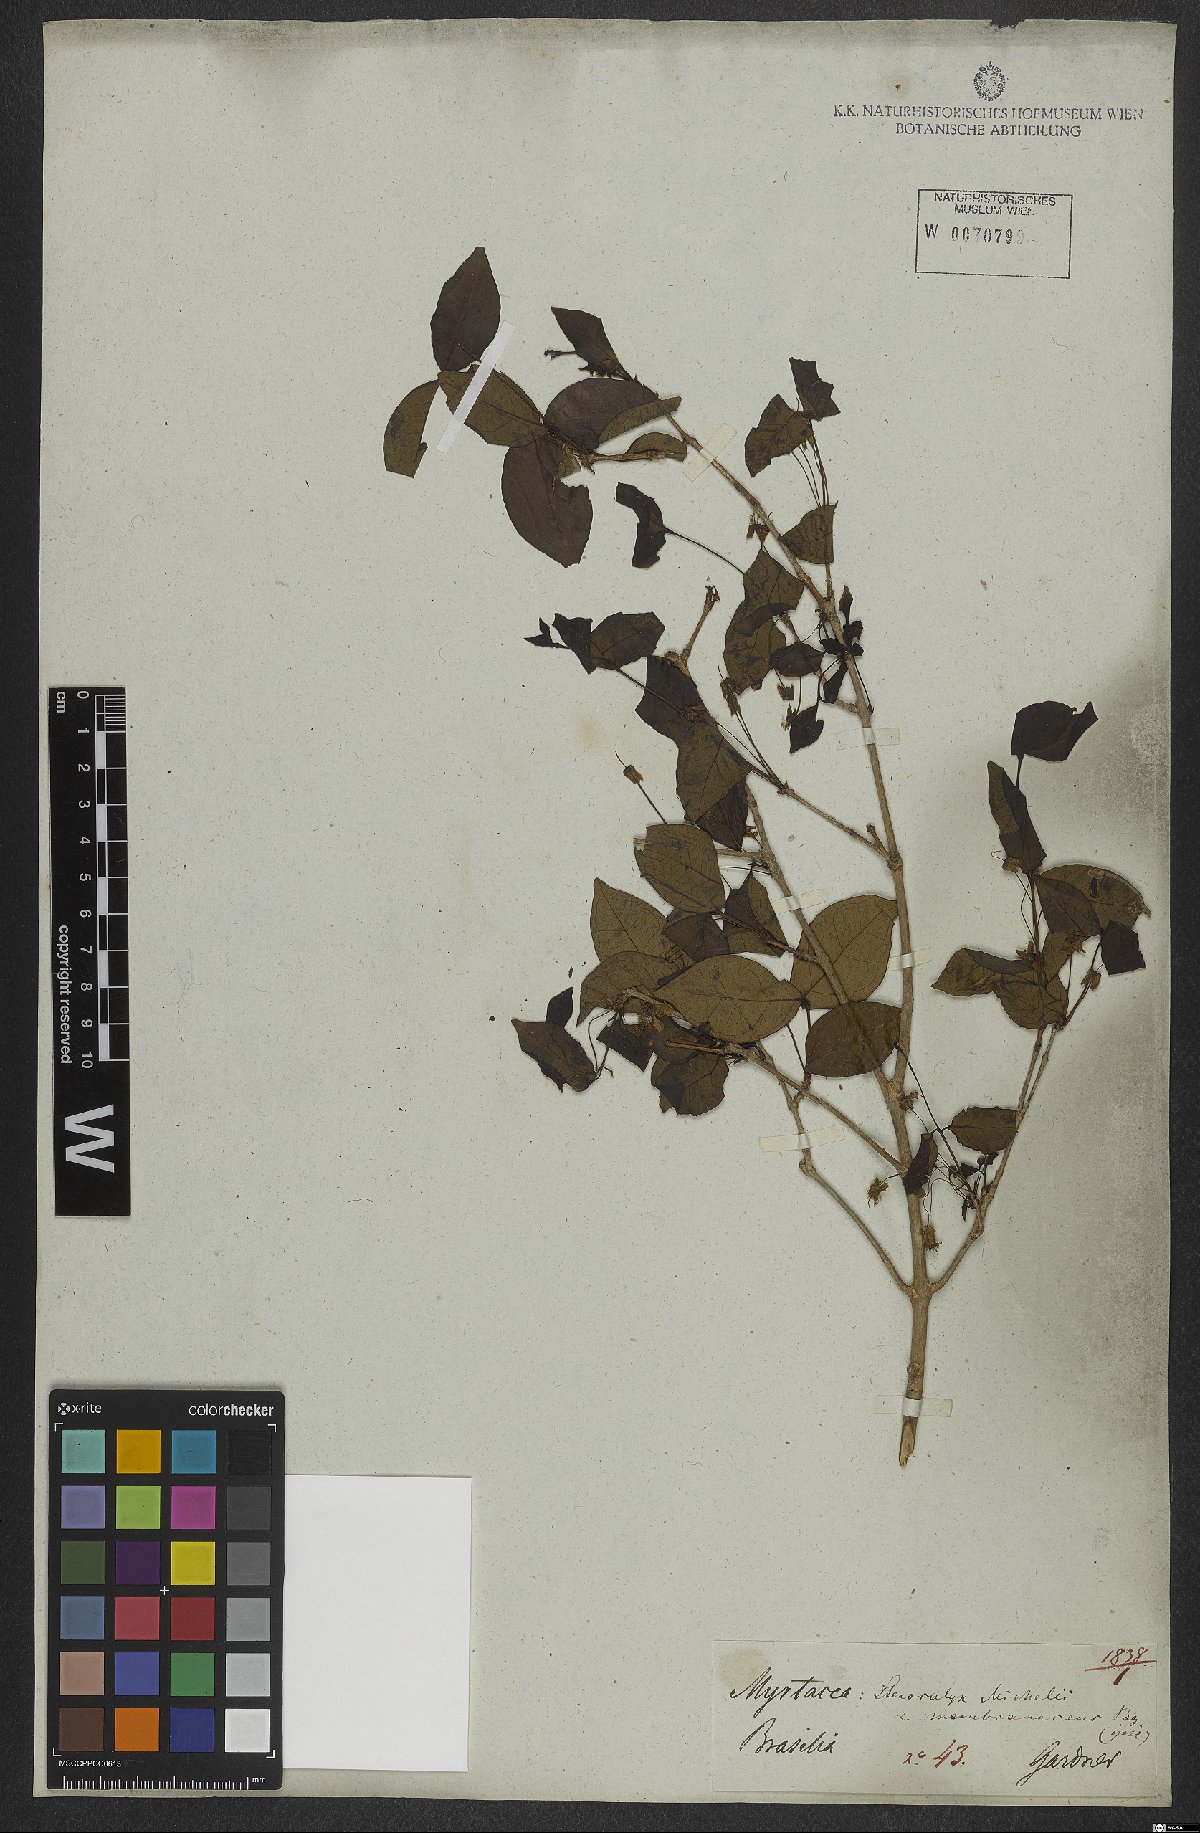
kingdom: Plantae
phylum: Tracheophyta
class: Magnoliopsida
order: Myrtales
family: Myrtaceae
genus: Eugenia
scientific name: Eugenia uniflora
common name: Surinam cherry
